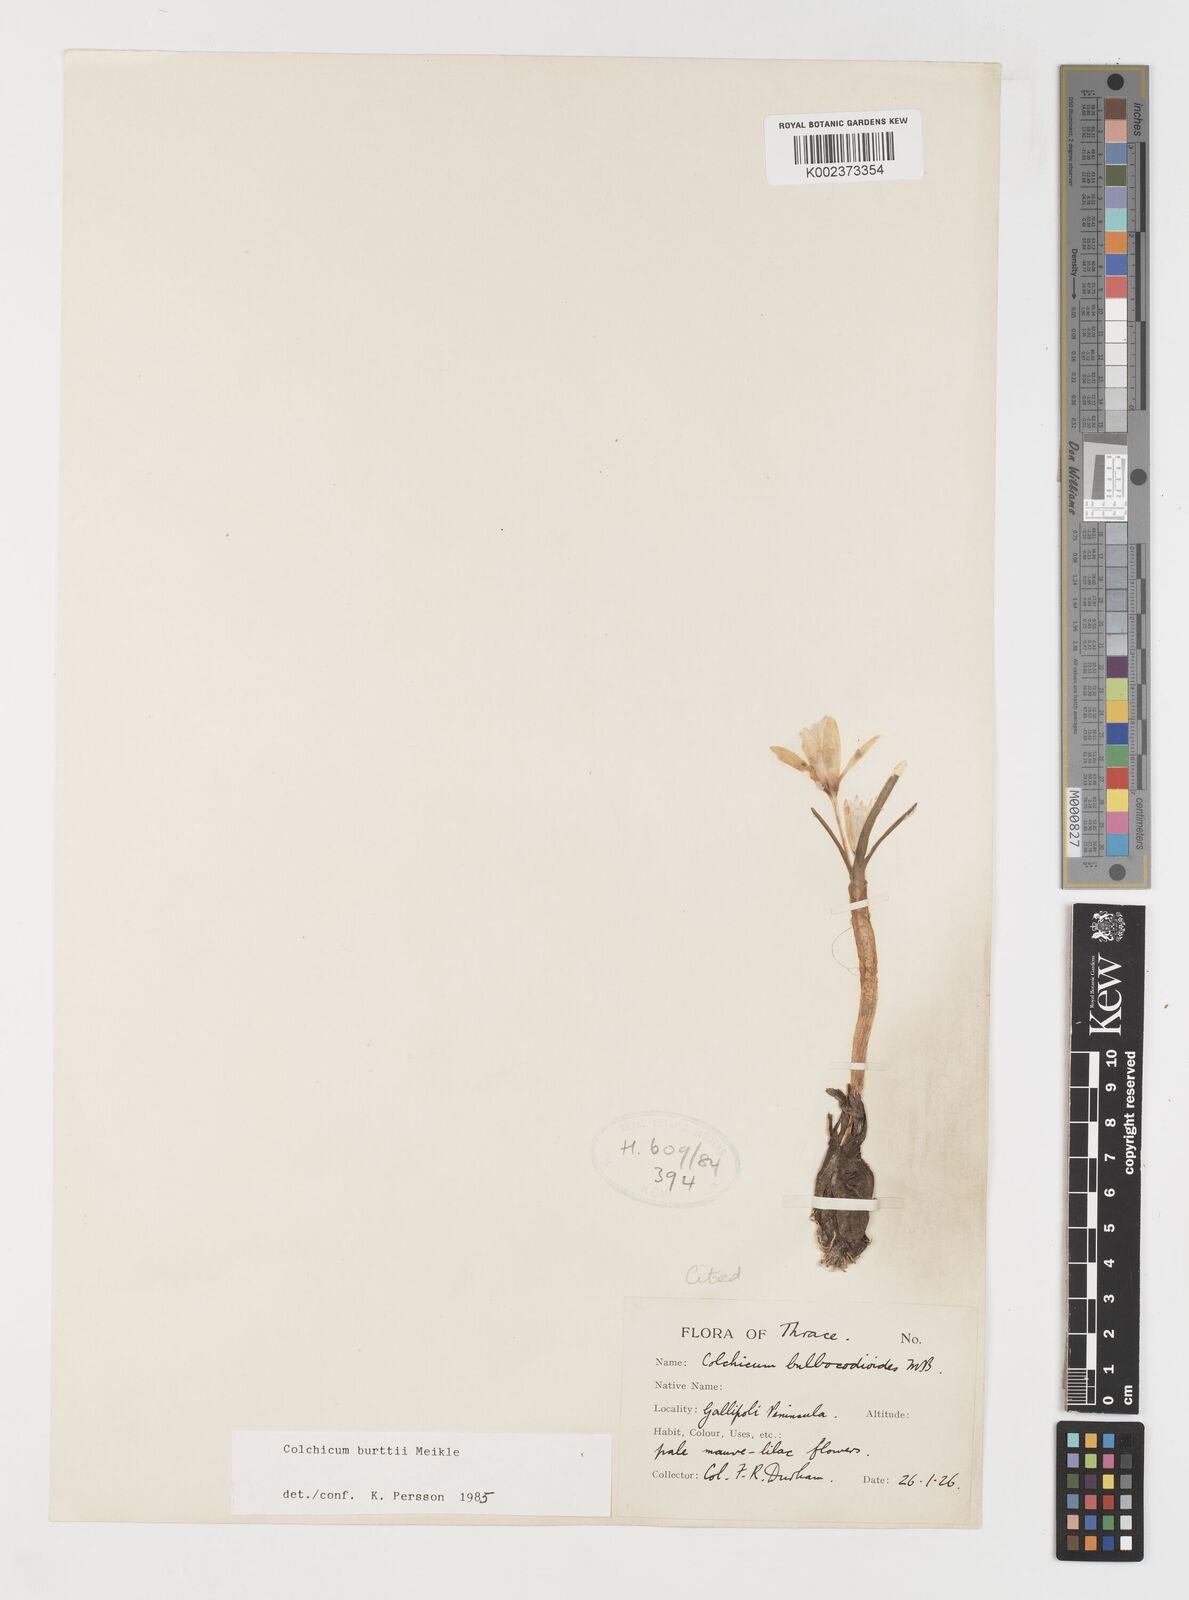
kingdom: Plantae
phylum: Tracheophyta
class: Liliopsida
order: Liliales
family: Colchicaceae
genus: Colchicum
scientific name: Colchicum burttii
